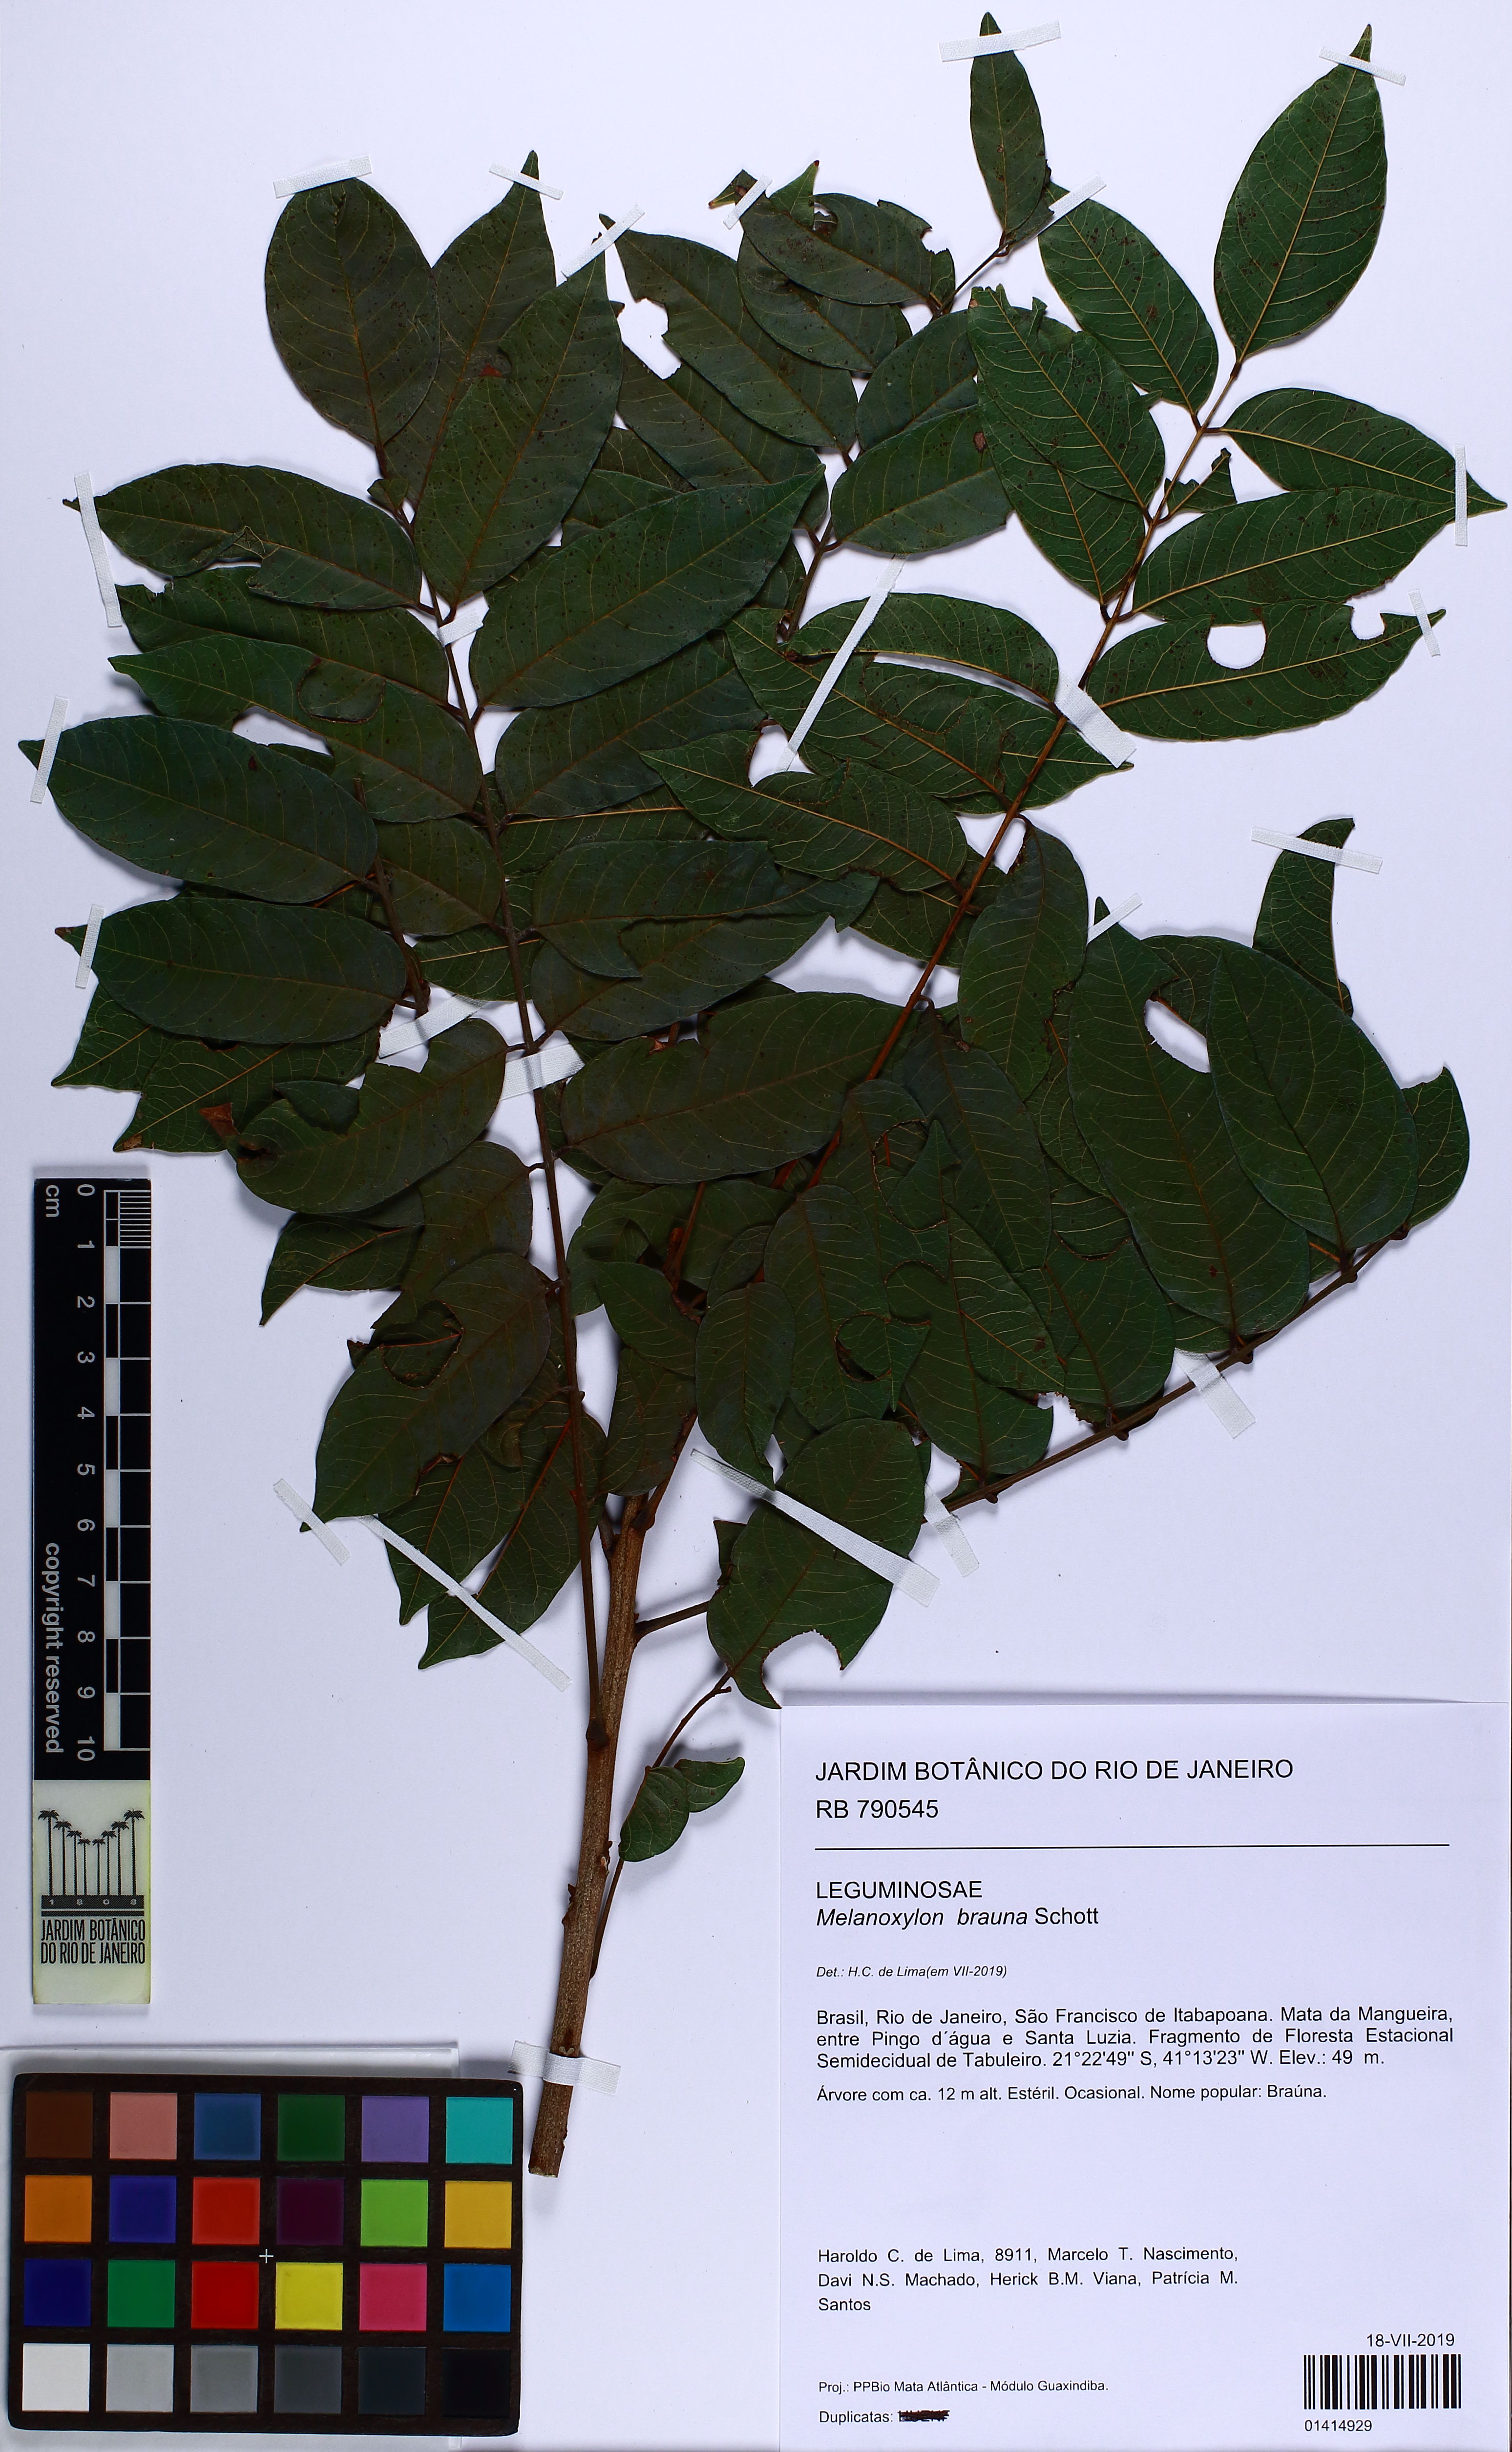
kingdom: Plantae
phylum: Tracheophyta
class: Magnoliopsida
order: Fabales
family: Fabaceae
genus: Melanoxylon
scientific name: Melanoxylon brauna
